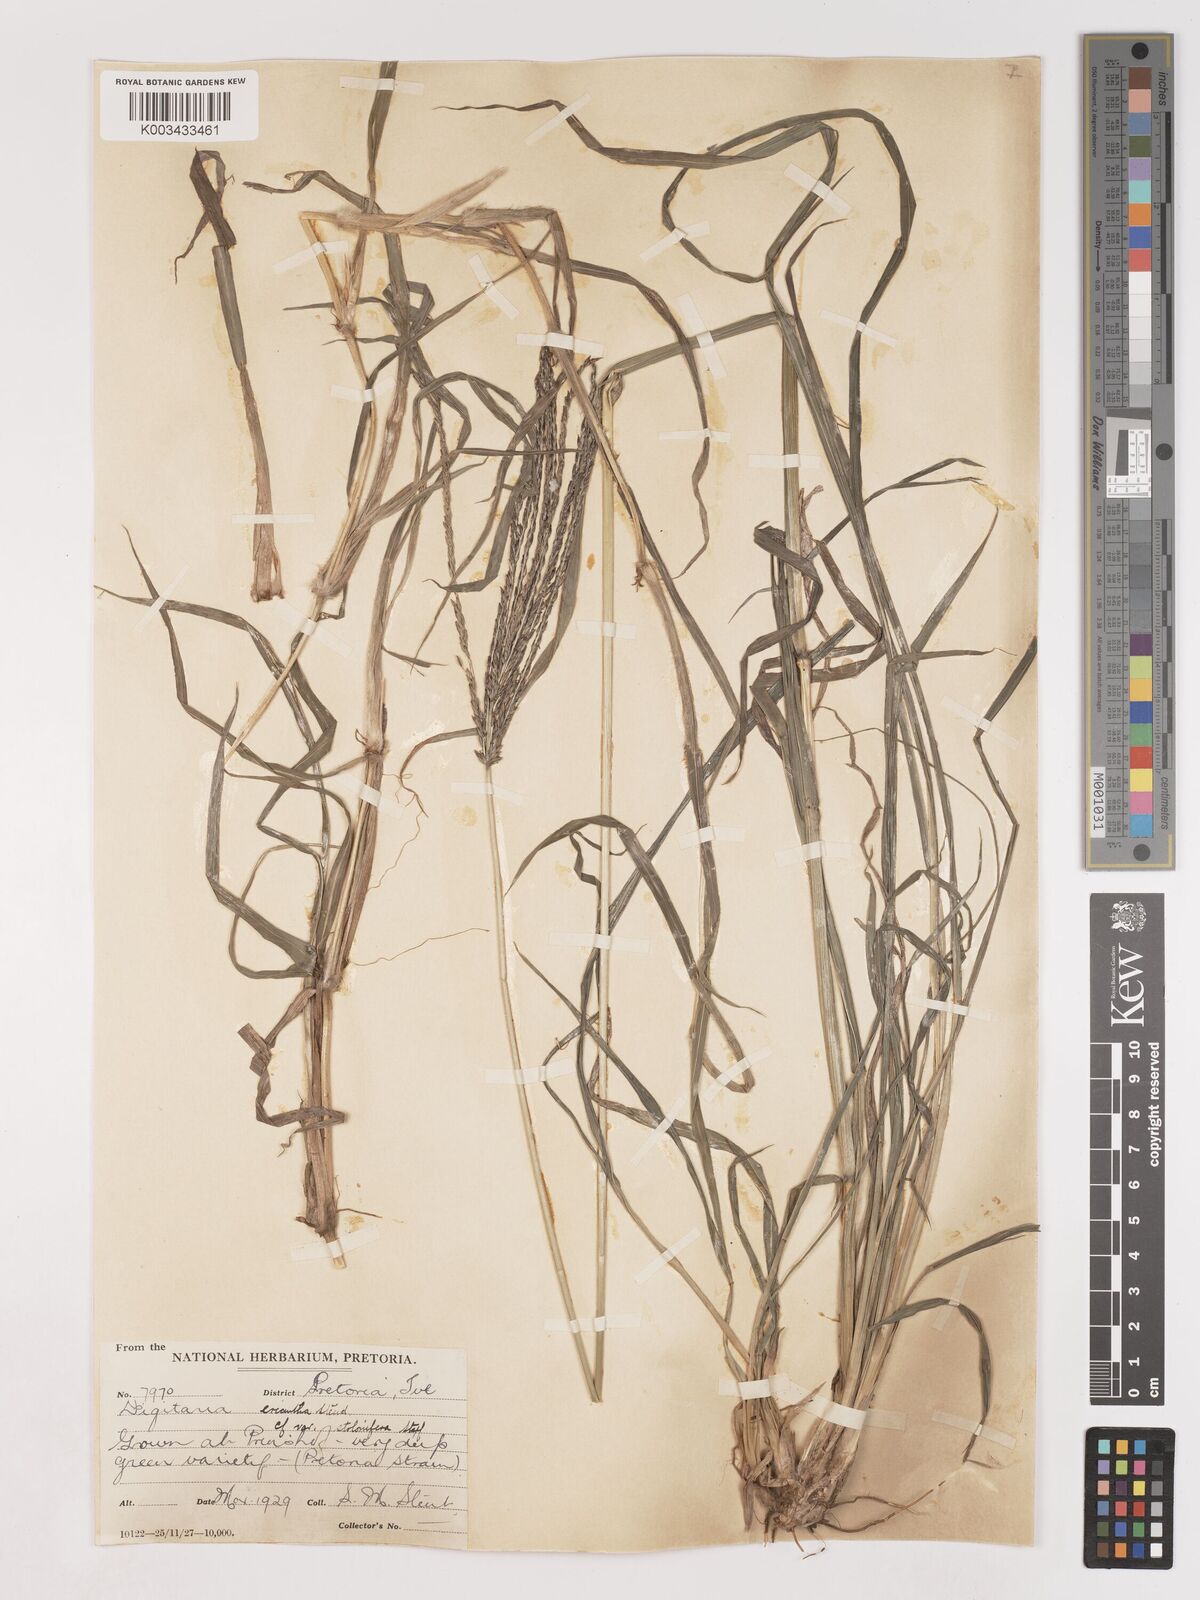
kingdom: Plantae
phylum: Tracheophyta
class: Liliopsida
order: Poales
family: Poaceae
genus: Digitaria
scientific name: Digitaria eriantha
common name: Digitgrass
